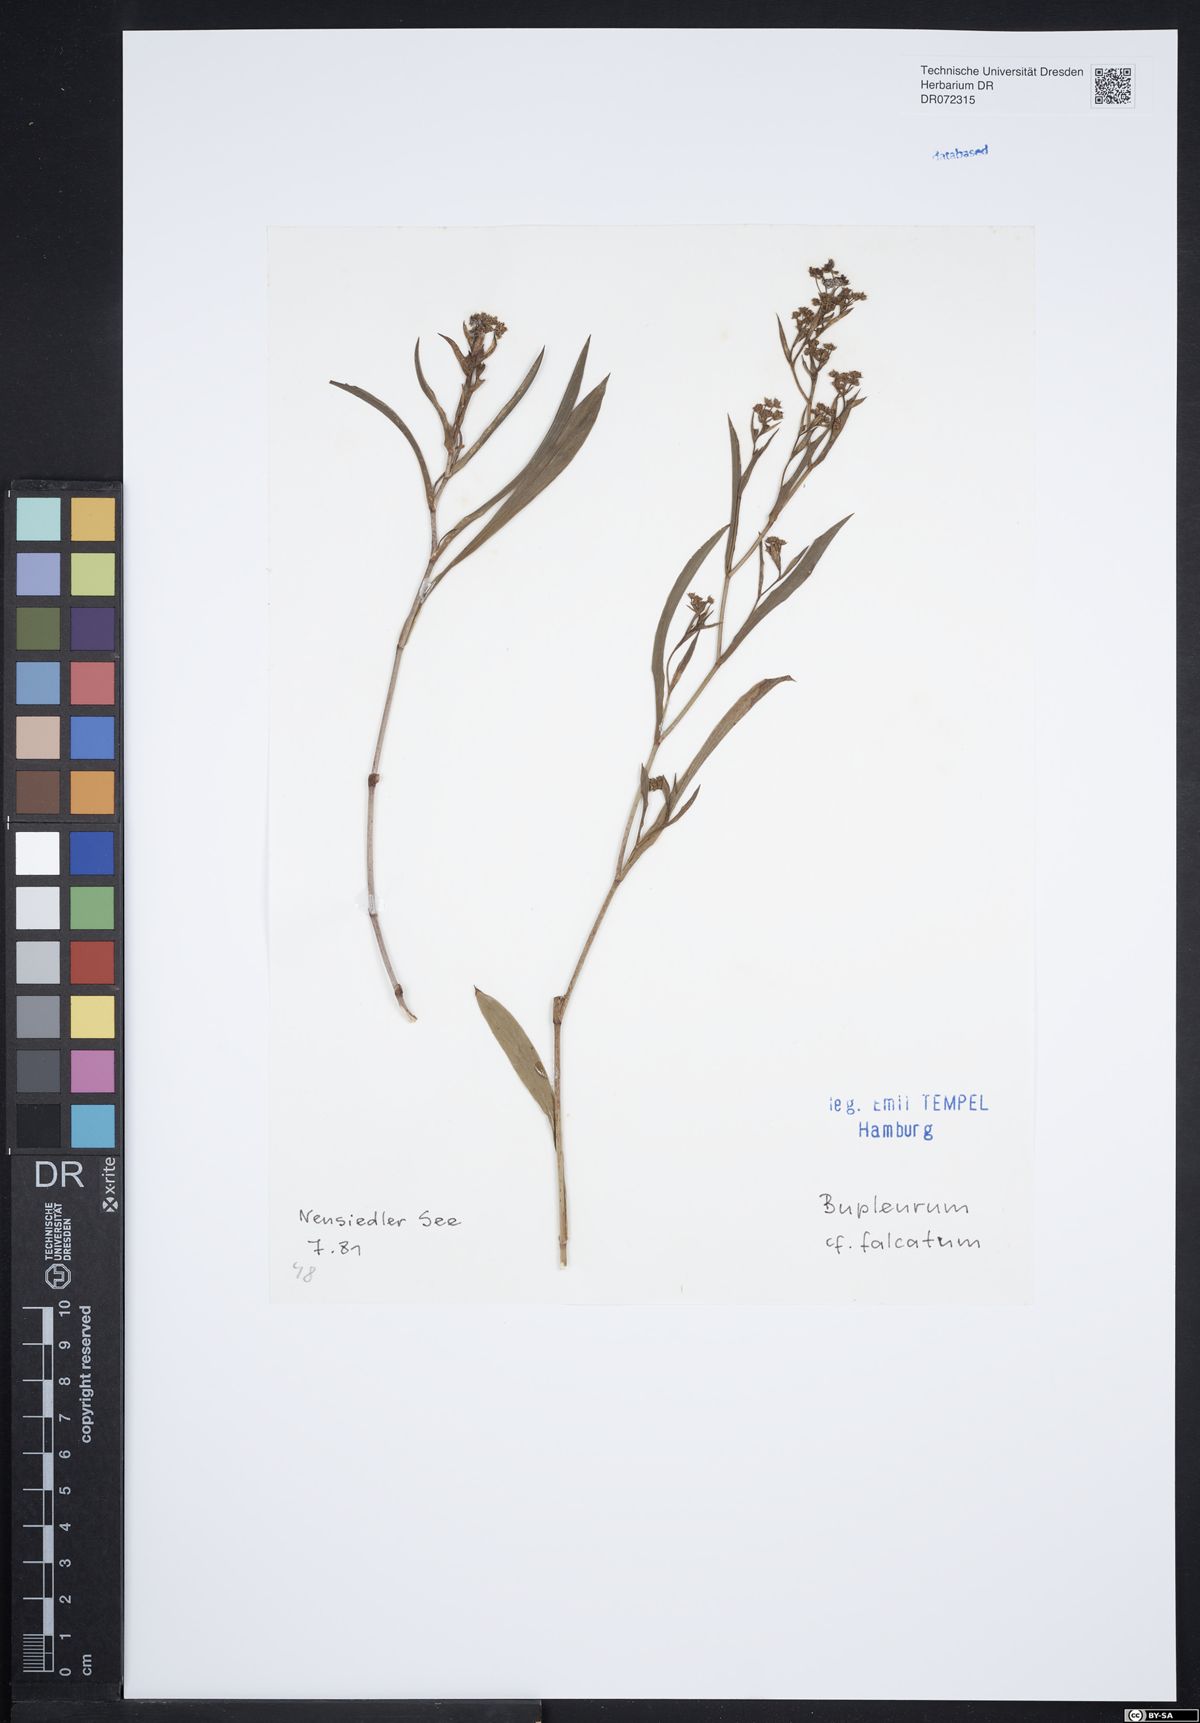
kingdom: Plantae
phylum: Tracheophyta
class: Magnoliopsida
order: Apiales
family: Apiaceae
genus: Bupleurum
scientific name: Bupleurum falcatum
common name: Sickle-leaved hare's-ear
